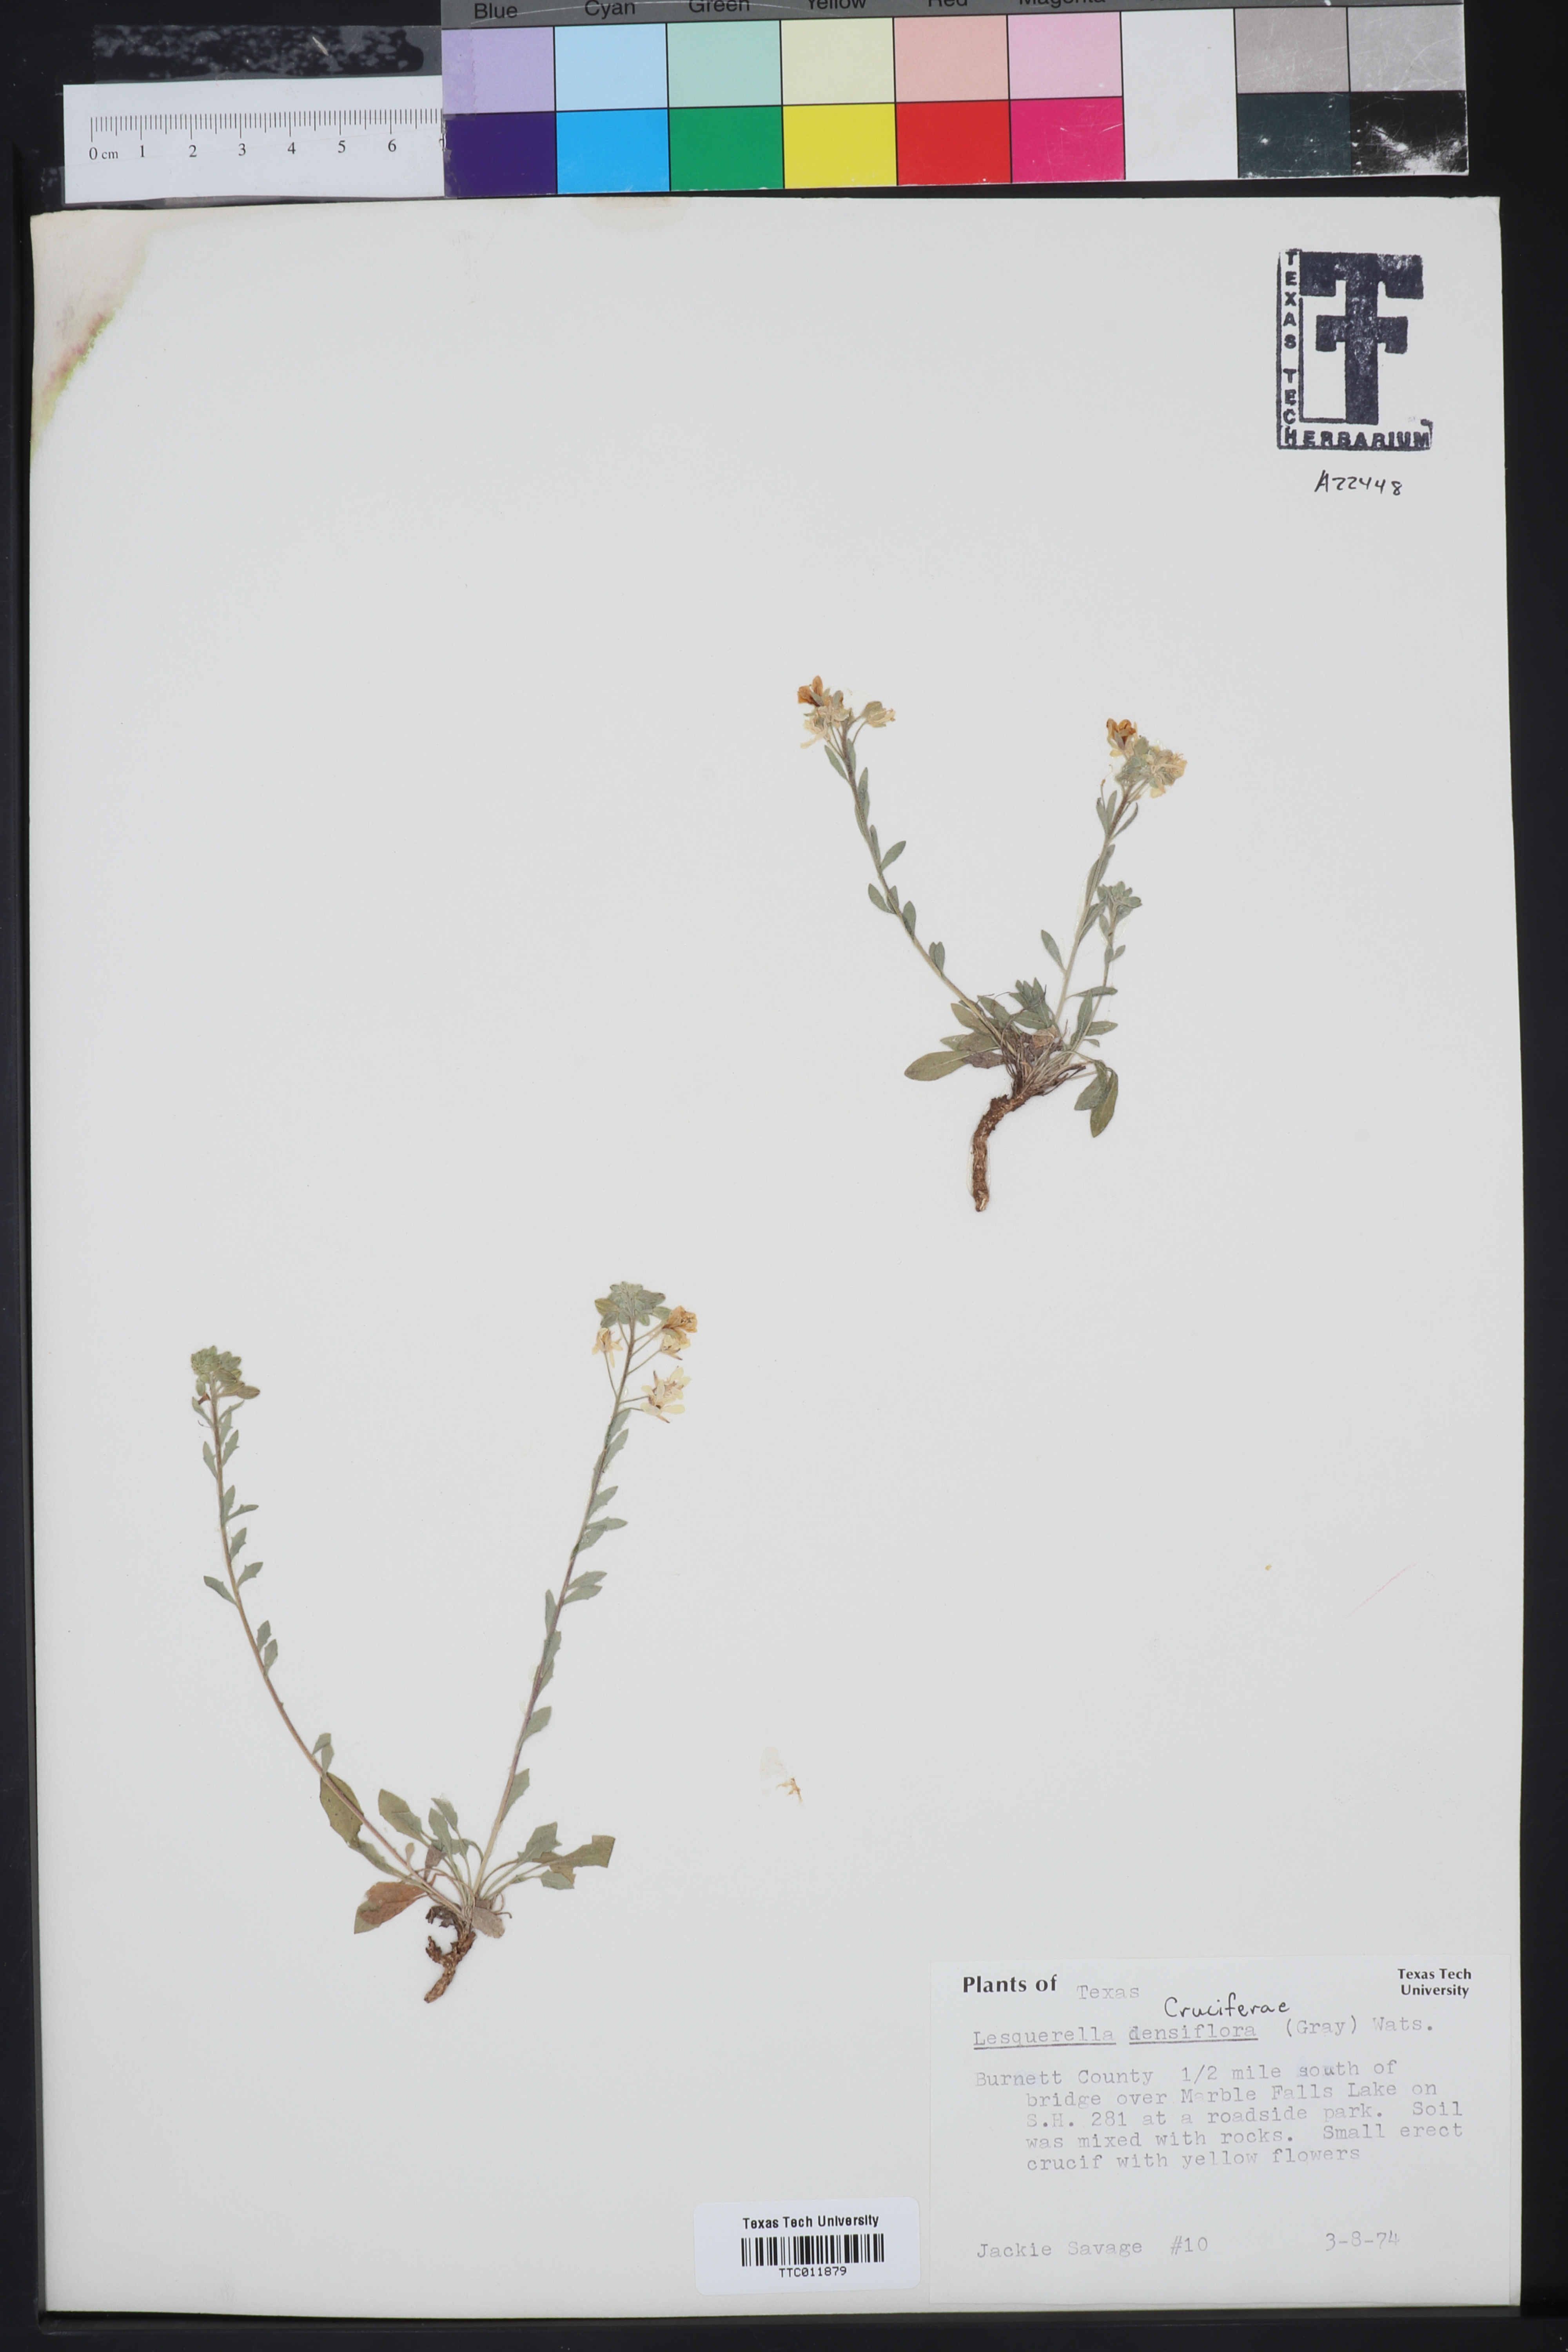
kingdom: Plantae
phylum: Tracheophyta
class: Magnoliopsida
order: Brassicales
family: Brassicaceae
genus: Physaria
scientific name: Physaria densiflora
